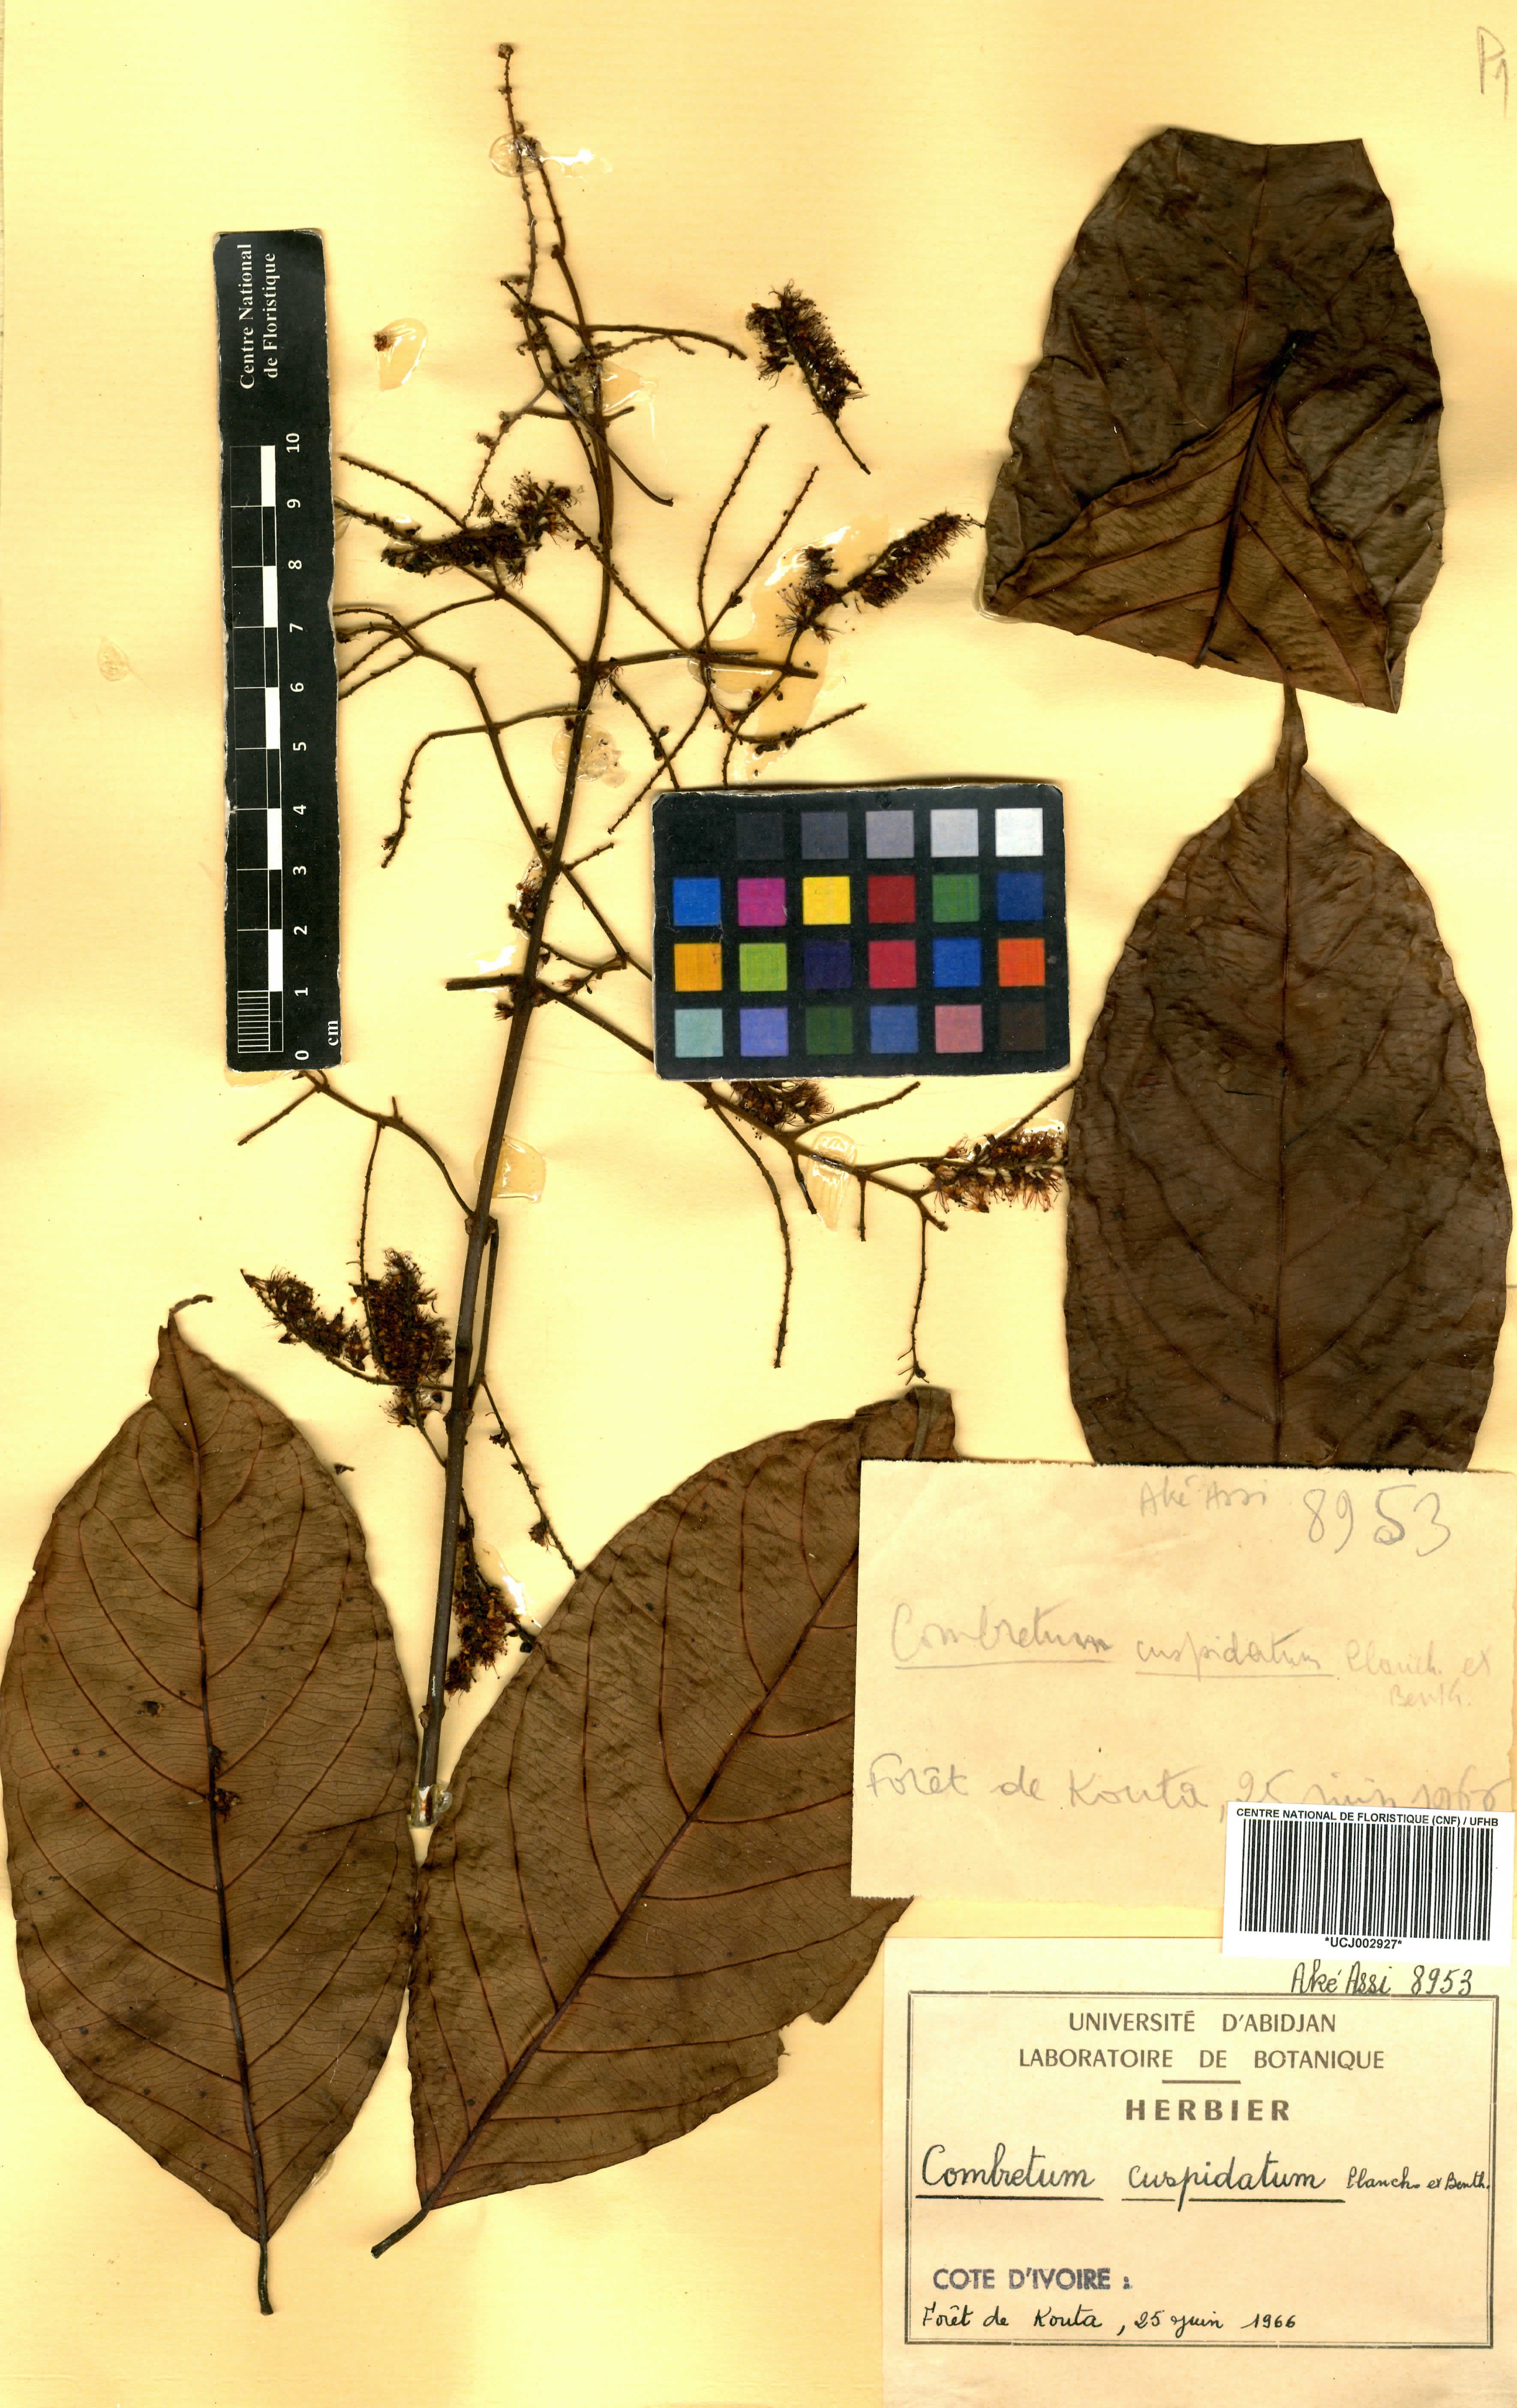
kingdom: Plantae
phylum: Tracheophyta
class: Magnoliopsida
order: Myrtales
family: Combretaceae
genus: Combretum
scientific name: Combretum cuspidatum
